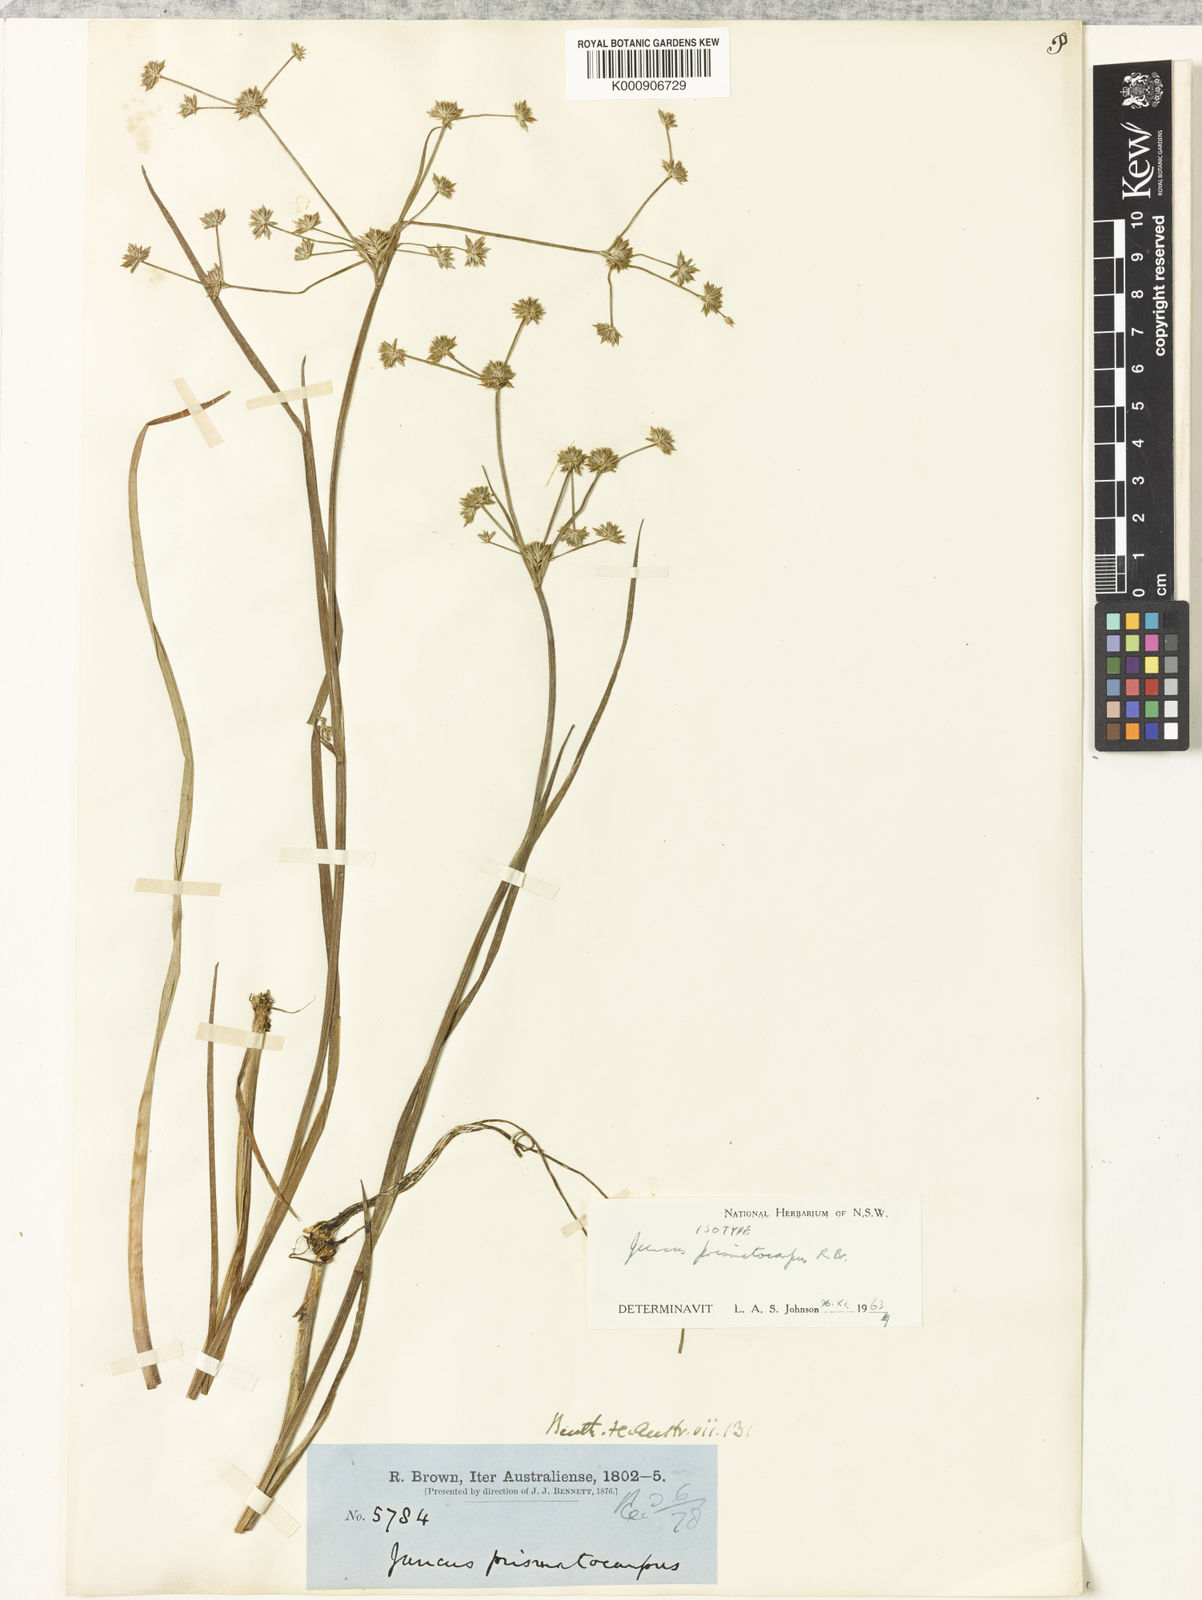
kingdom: Plantae
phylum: Tracheophyta
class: Liliopsida
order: Poales
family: Juncaceae
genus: Juncus
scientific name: Juncus prismatocarpus
